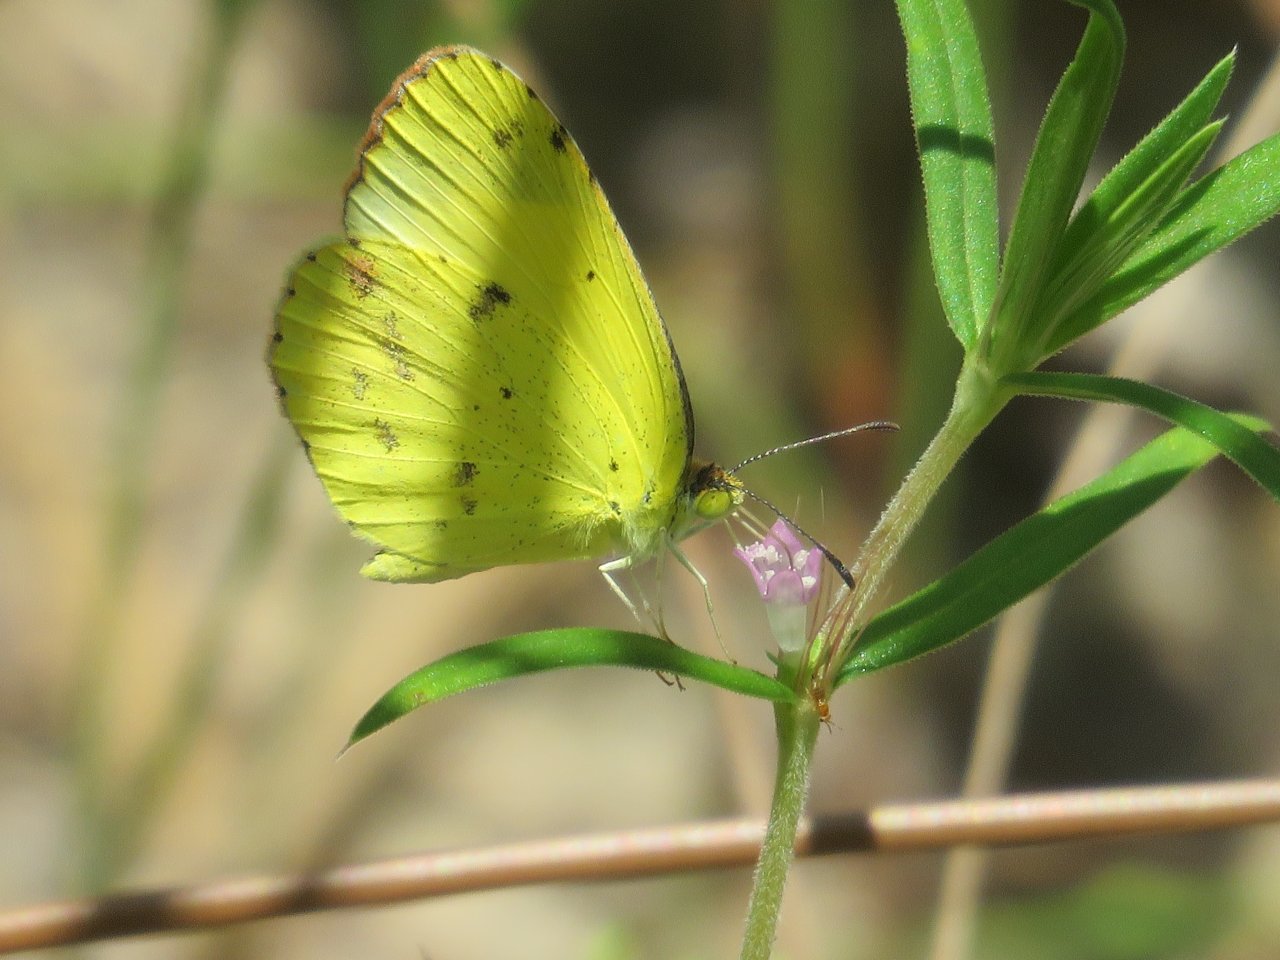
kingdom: Animalia
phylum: Arthropoda
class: Insecta
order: Lepidoptera
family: Pieridae
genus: Pyrisitia
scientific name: Pyrisitia lisa
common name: Little Yellow
